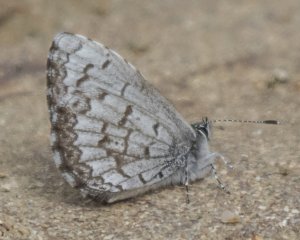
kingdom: Animalia
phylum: Arthropoda
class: Insecta
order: Lepidoptera
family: Lycaenidae
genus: Celastrina
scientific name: Celastrina lucia
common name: Northern Spring Azure
